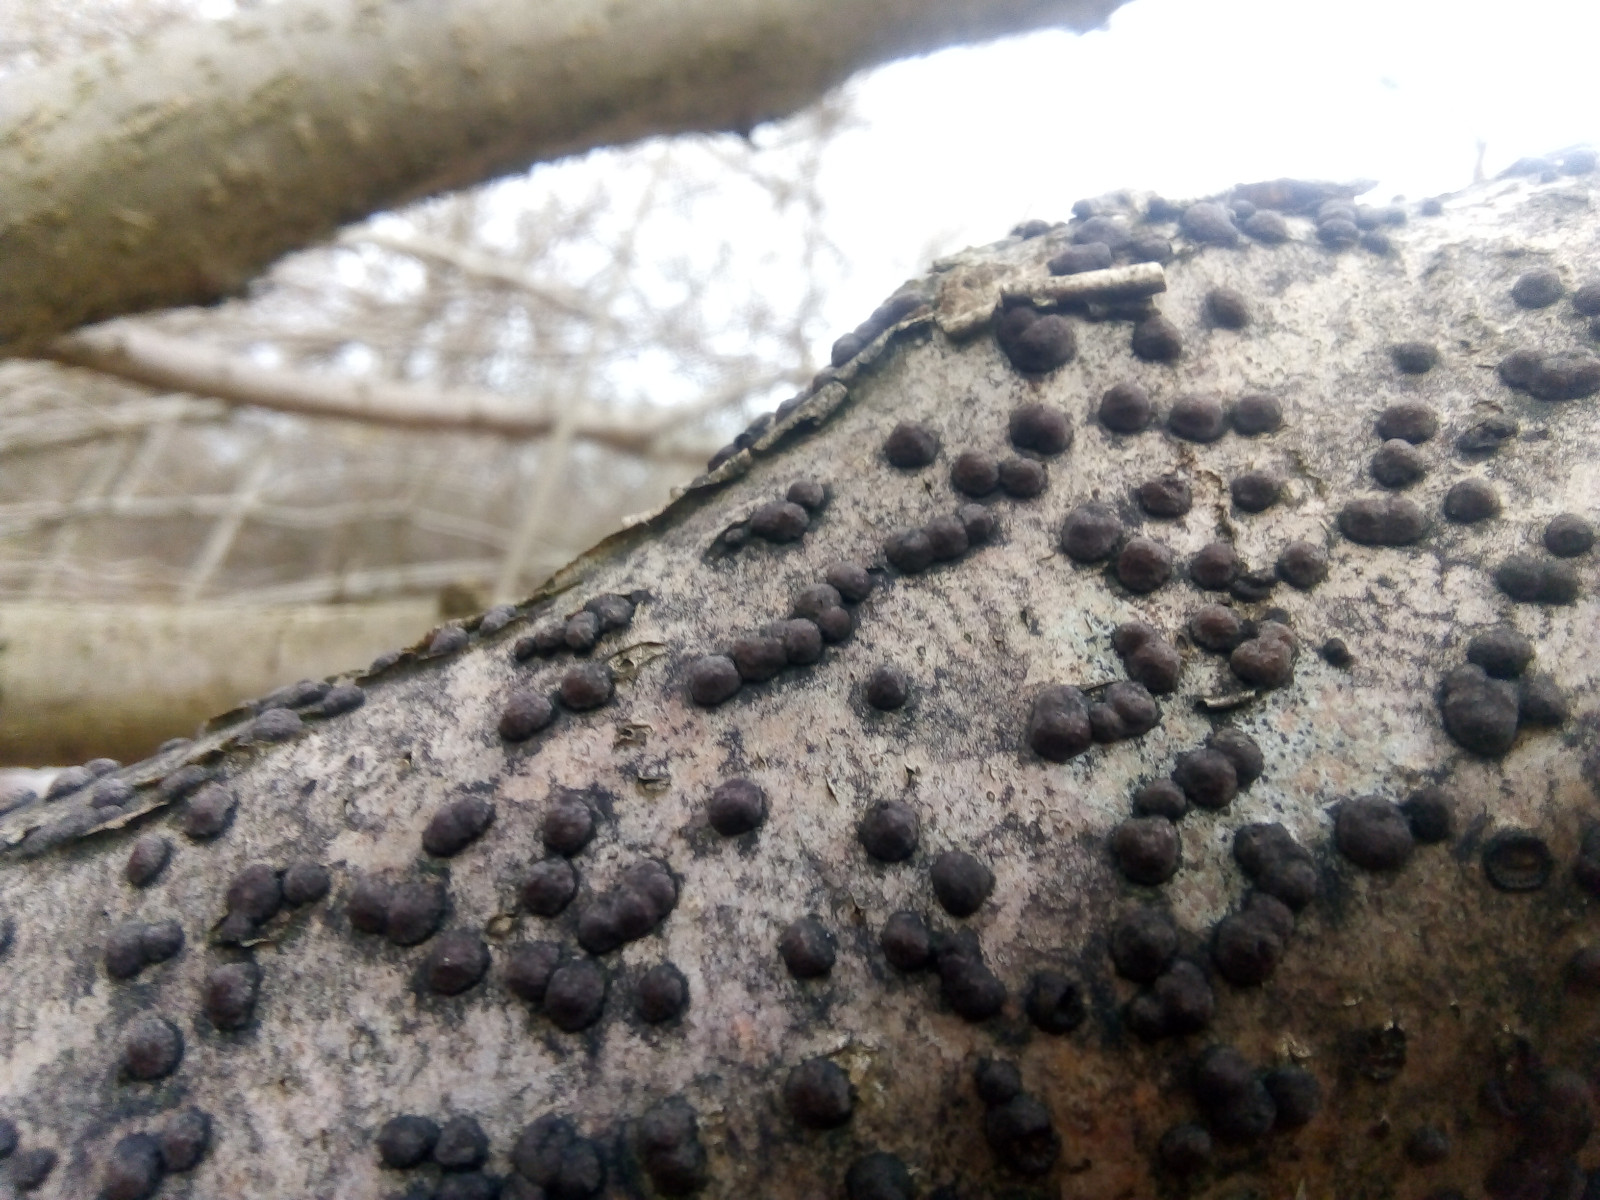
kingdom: Fungi
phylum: Ascomycota
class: Sordariomycetes
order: Xylariales
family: Hypoxylaceae
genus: Hypoxylon
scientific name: Hypoxylon fuscum
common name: kegleformet kulbær
